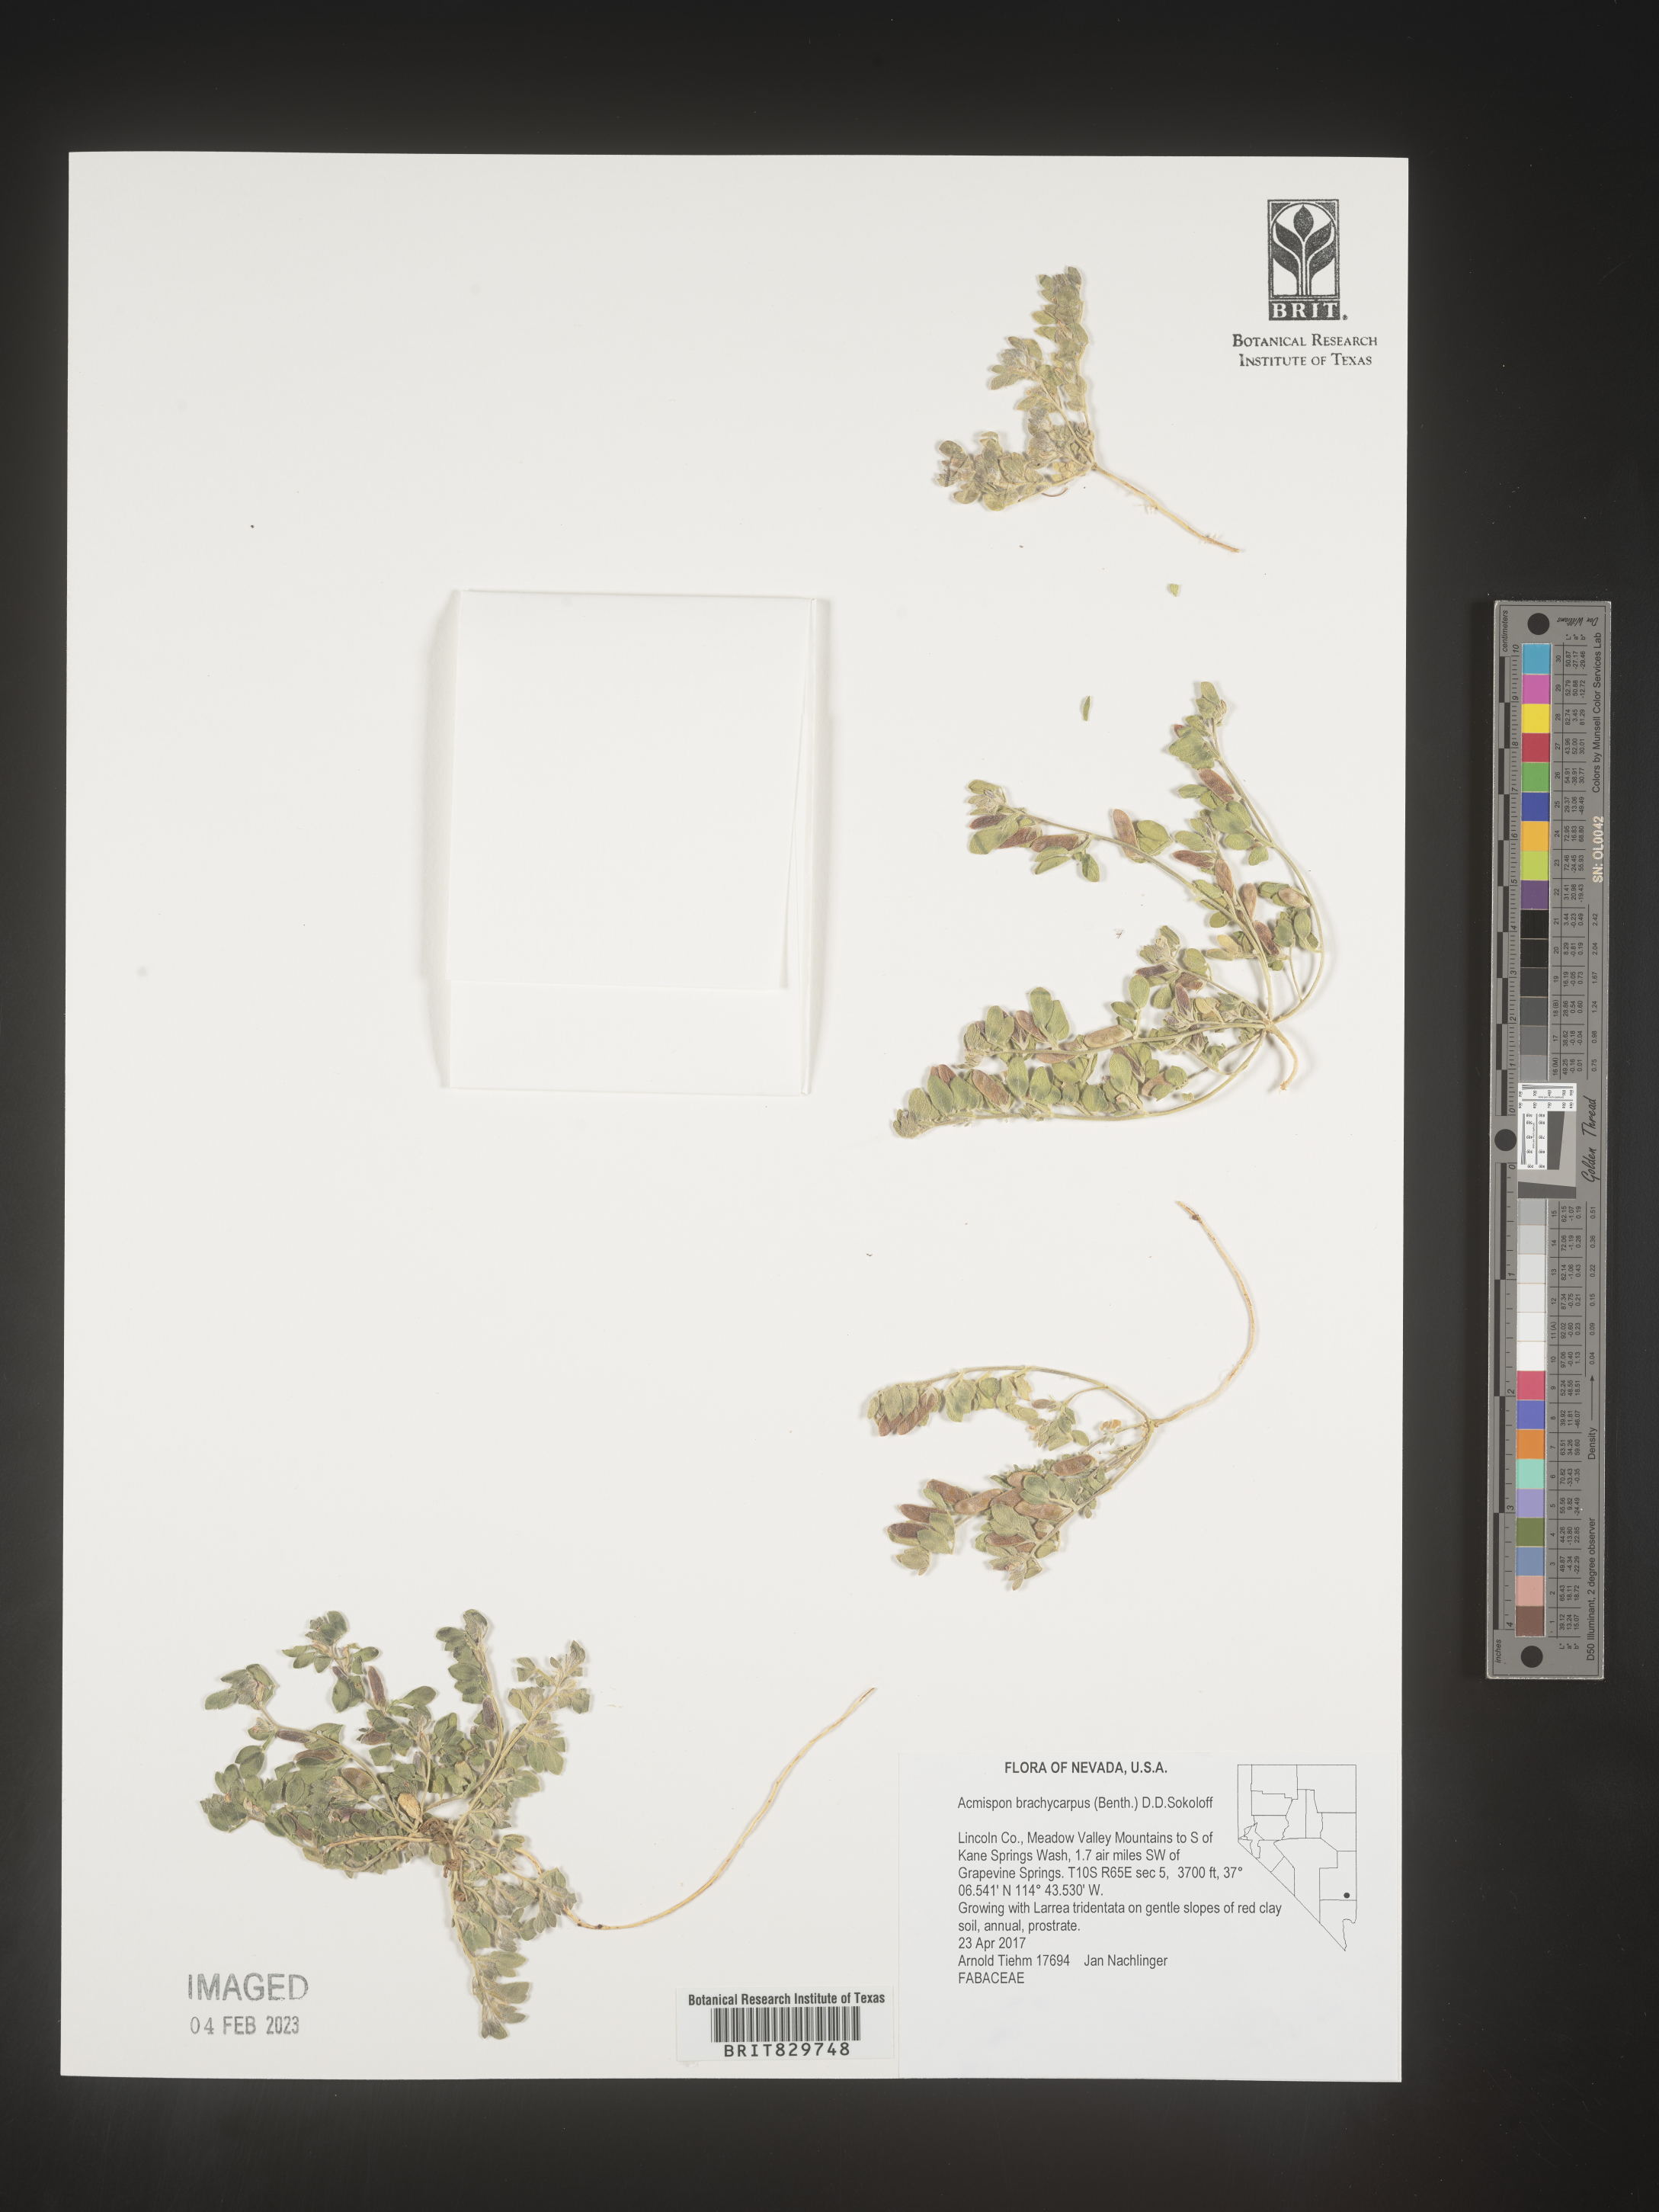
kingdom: Plantae
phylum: Tracheophyta
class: Magnoliopsida
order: Fabales
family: Fabaceae
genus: Acmispon
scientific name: Acmispon brachycarpus
